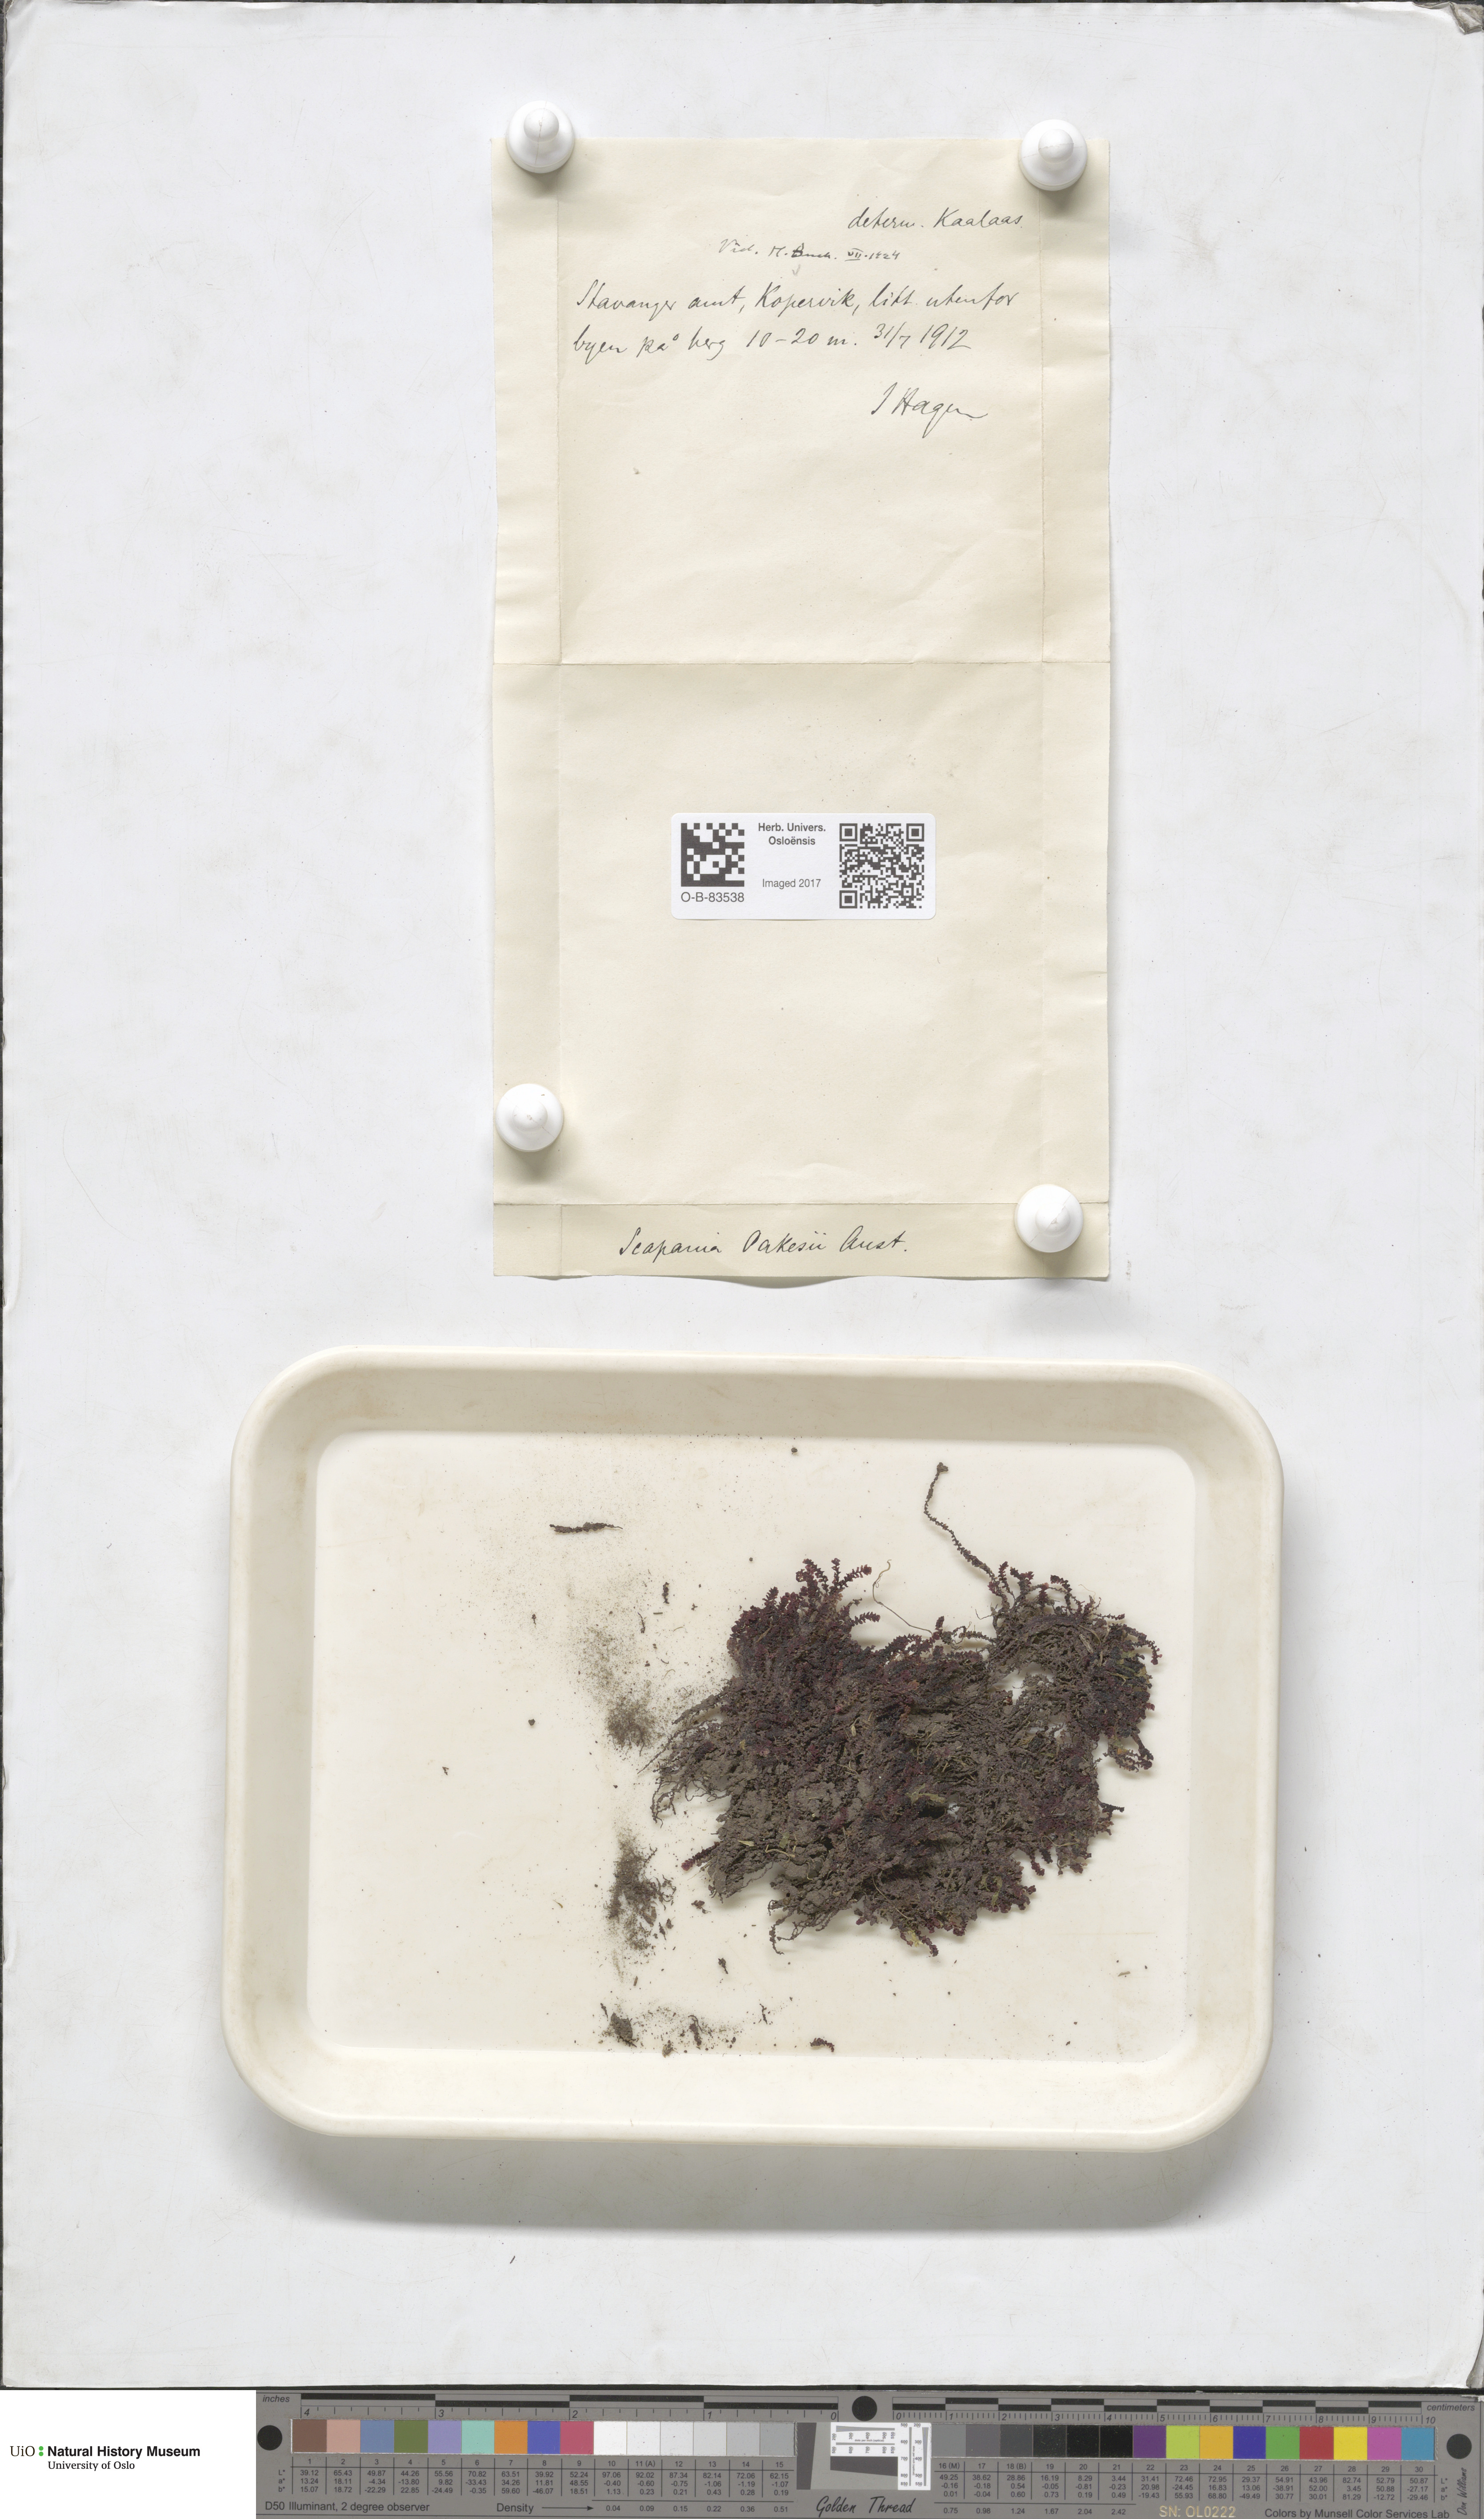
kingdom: Plantae
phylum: Marchantiophyta
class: Jungermanniopsida
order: Jungermanniales
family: Scapaniaceae
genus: Scapania
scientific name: Scapania undulata
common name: Water earwort
